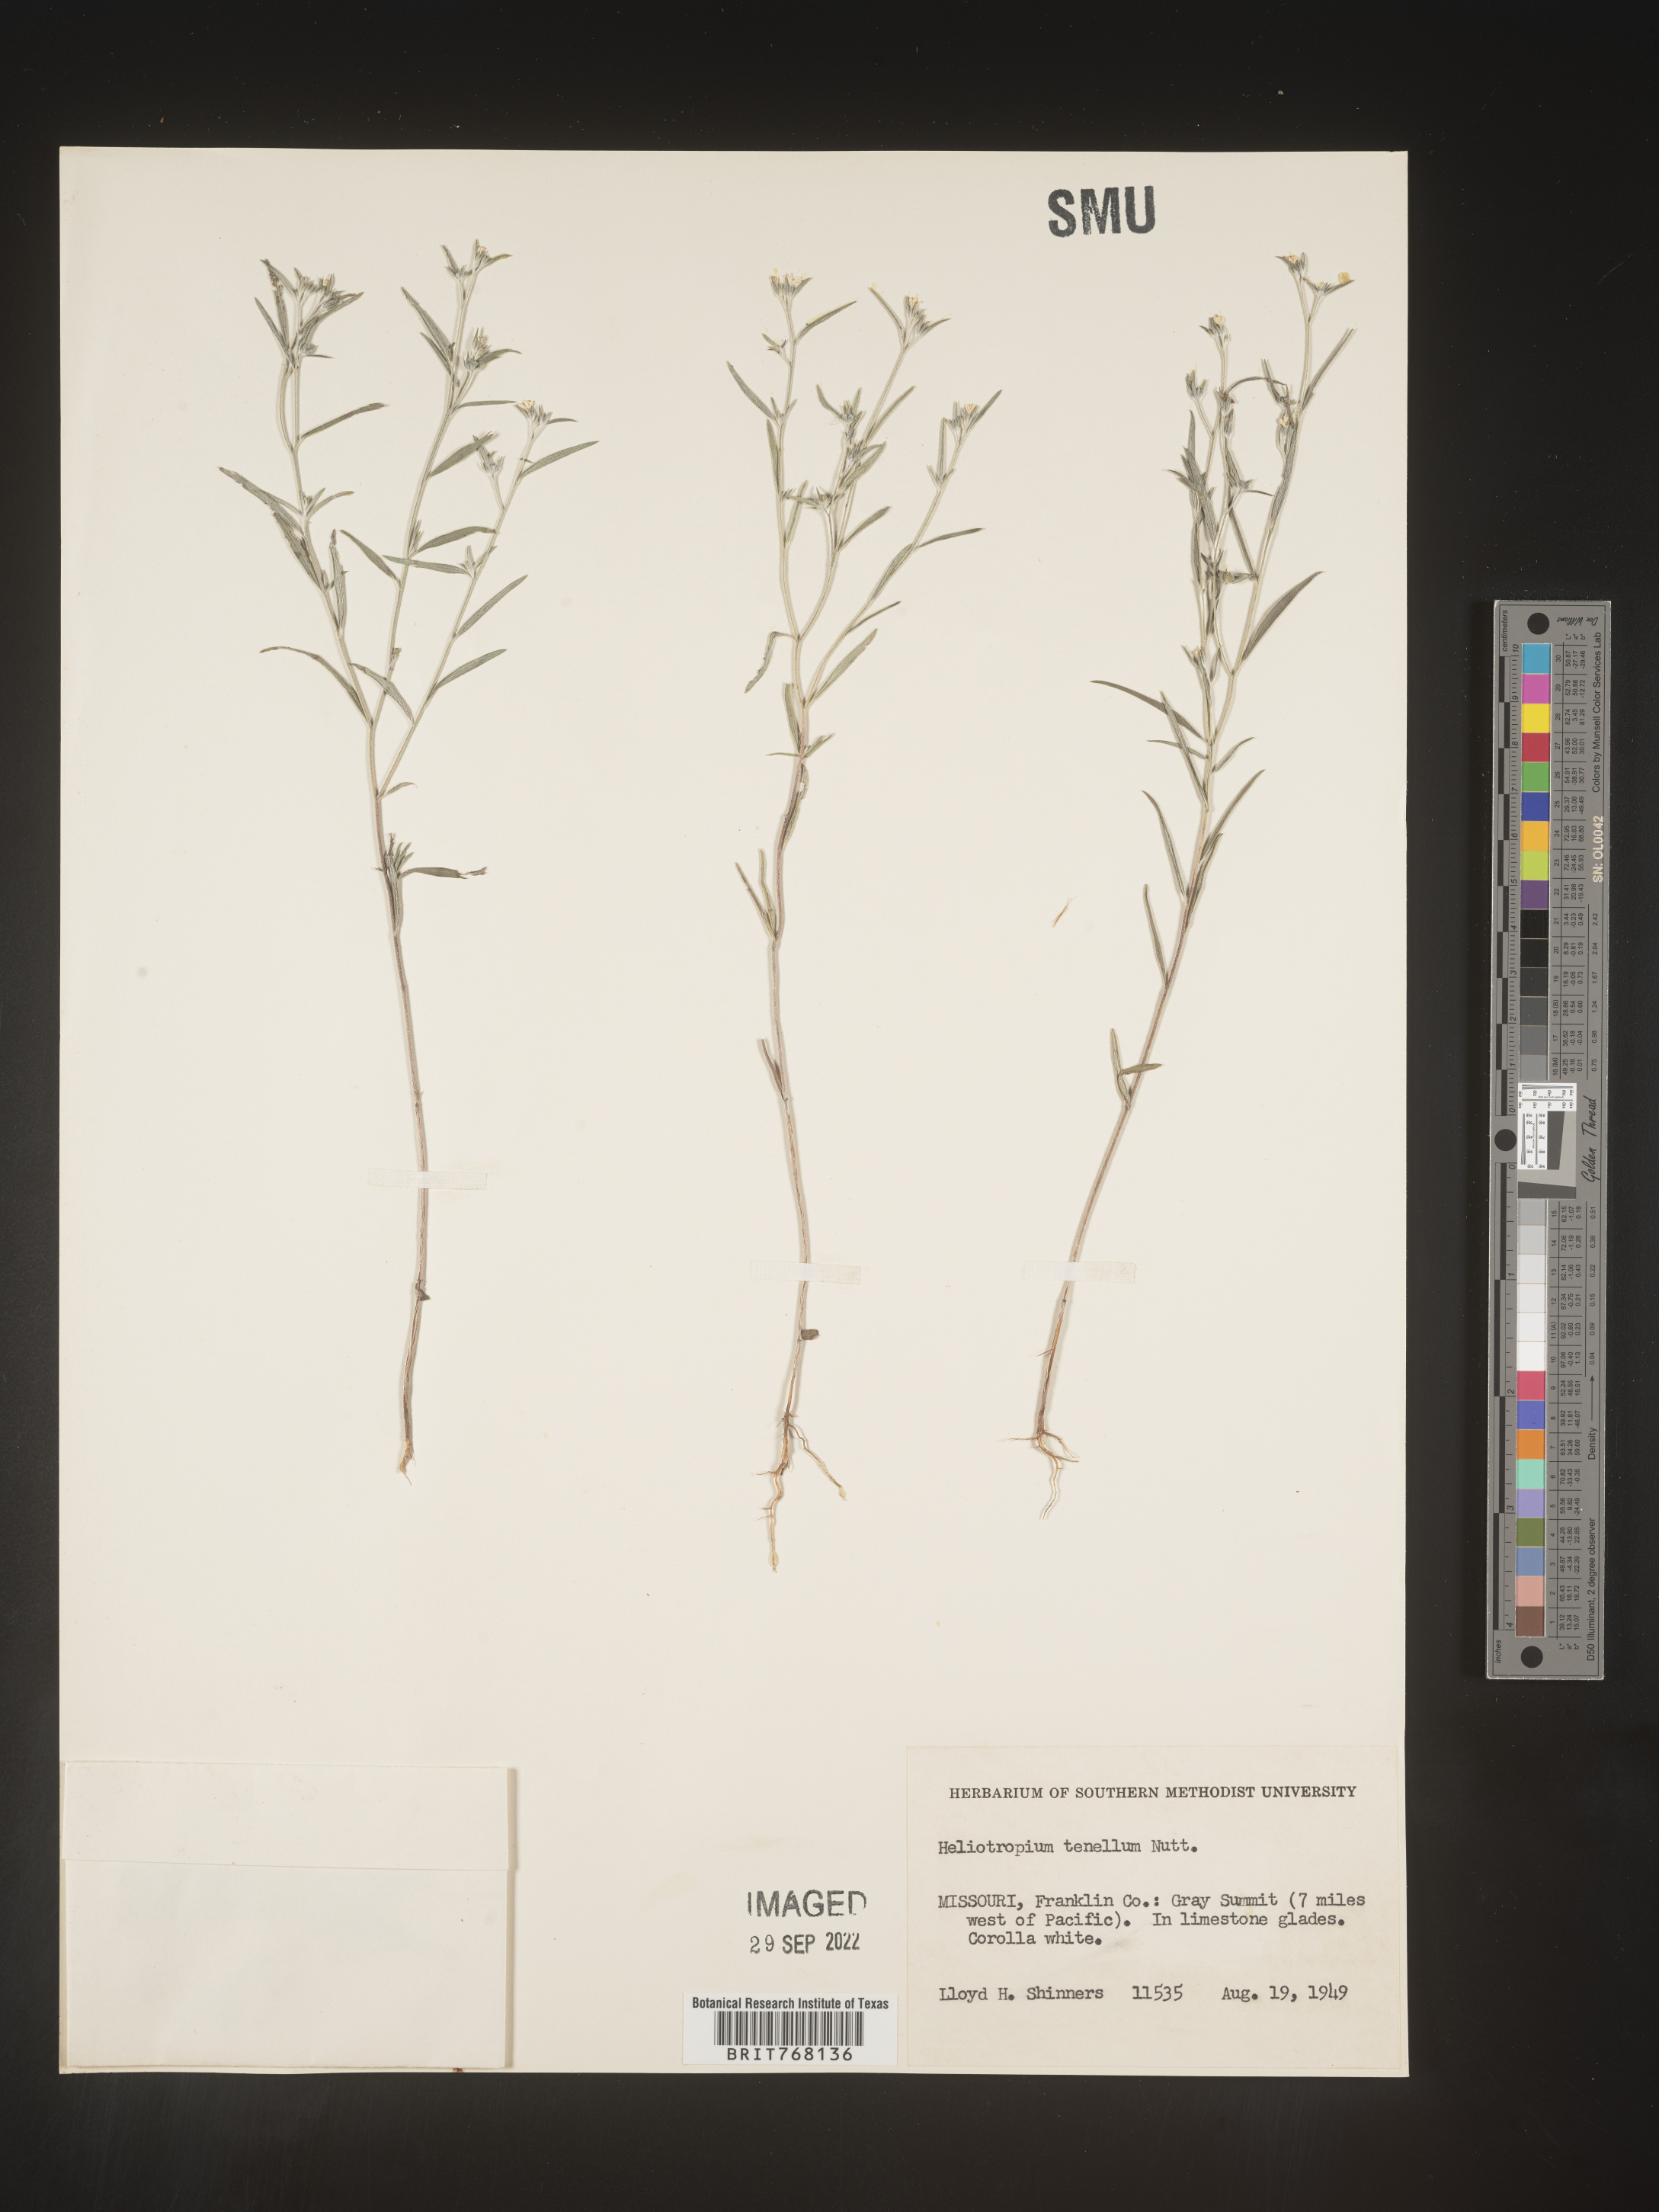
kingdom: Plantae
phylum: Tracheophyta
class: Magnoliopsida
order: Boraginales
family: Heliotropiaceae
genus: Euploca
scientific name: Euploca tenella
